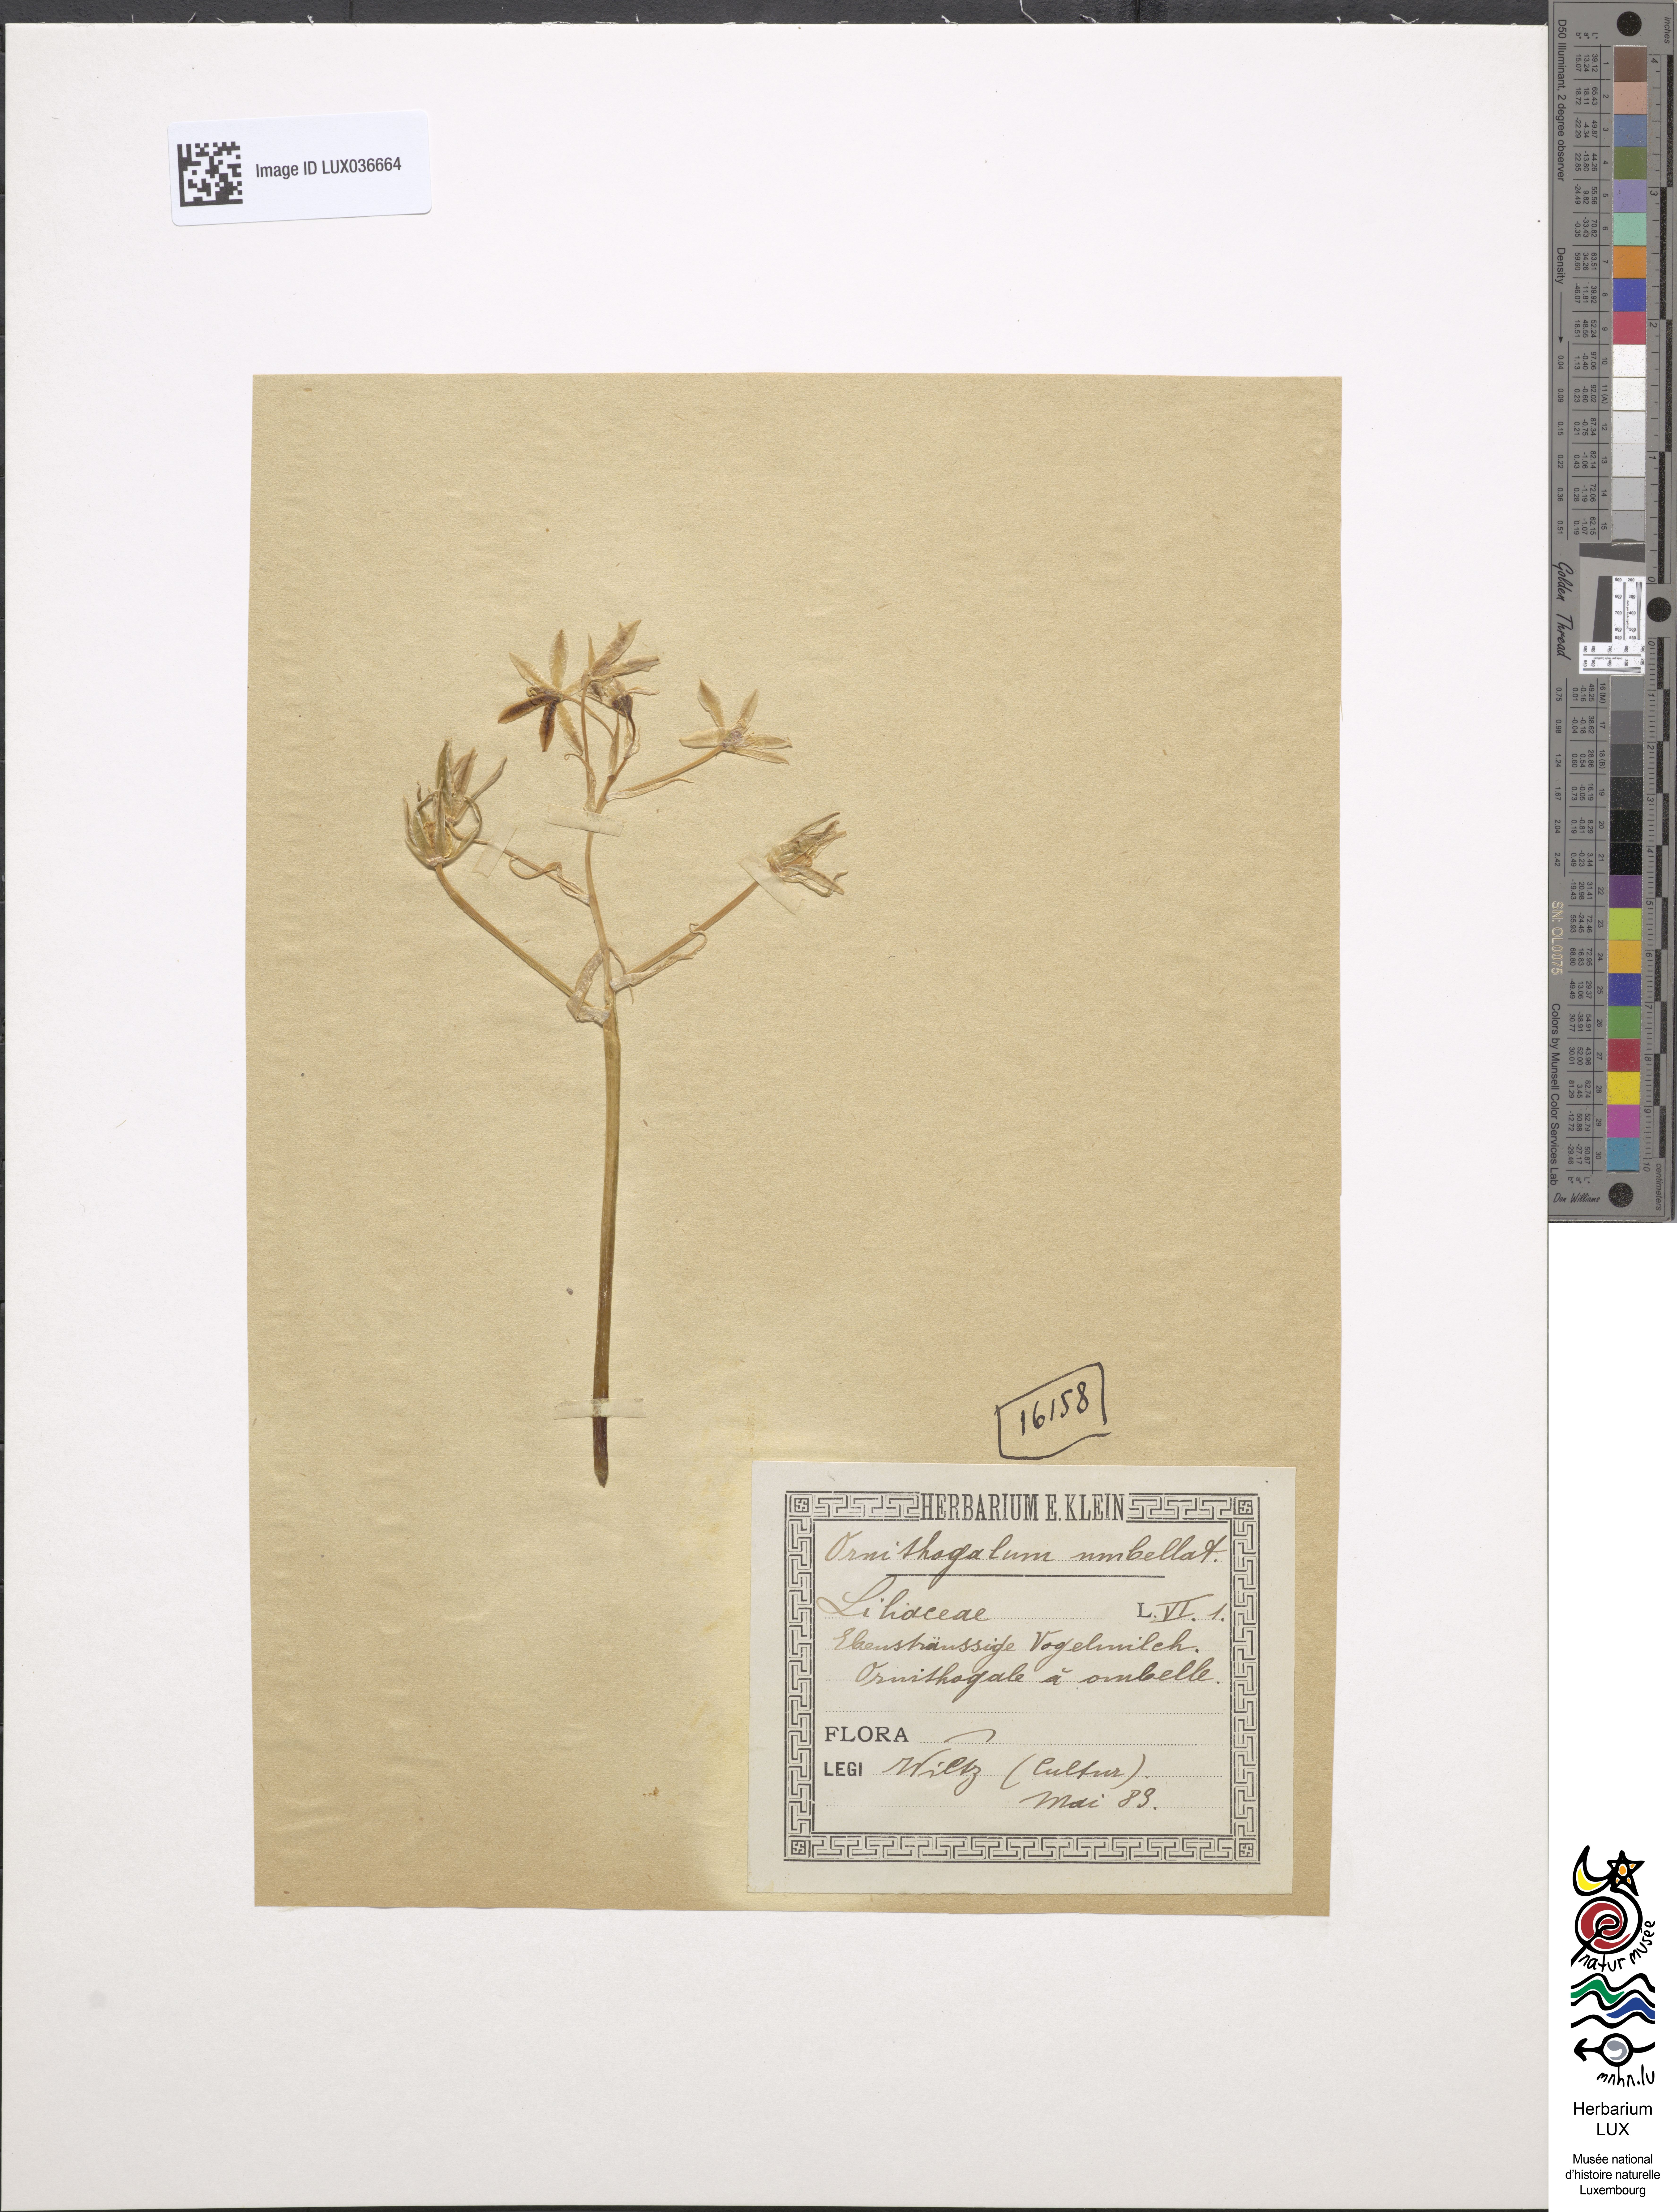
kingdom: Plantae
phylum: Tracheophyta
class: Liliopsida
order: Asparagales
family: Asparagaceae
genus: Ornithogalum
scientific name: Ornithogalum umbellatum
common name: Garden star-of-bethlehem
